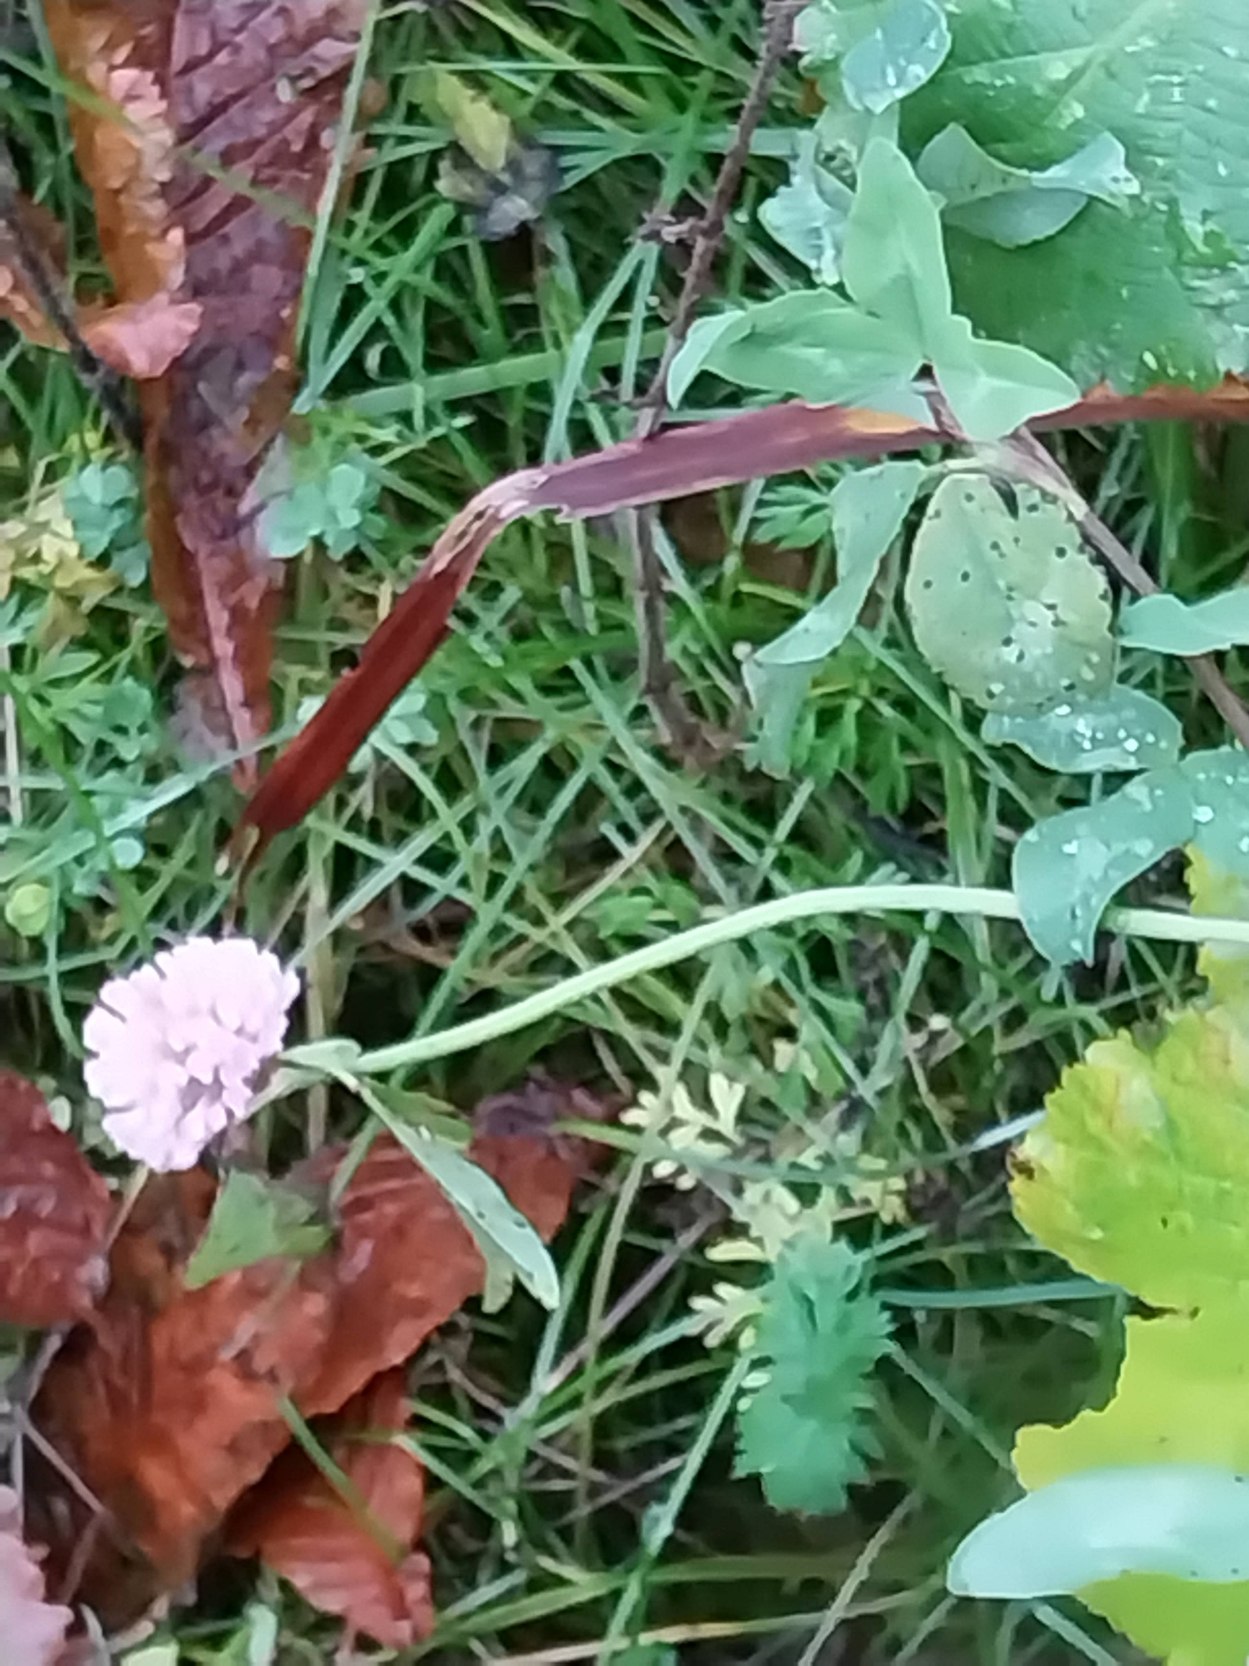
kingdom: Plantae
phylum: Tracheophyta
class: Magnoliopsida
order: Fabales
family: Fabaceae
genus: Trifolium
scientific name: Trifolium pratense
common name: Rød-kløver
